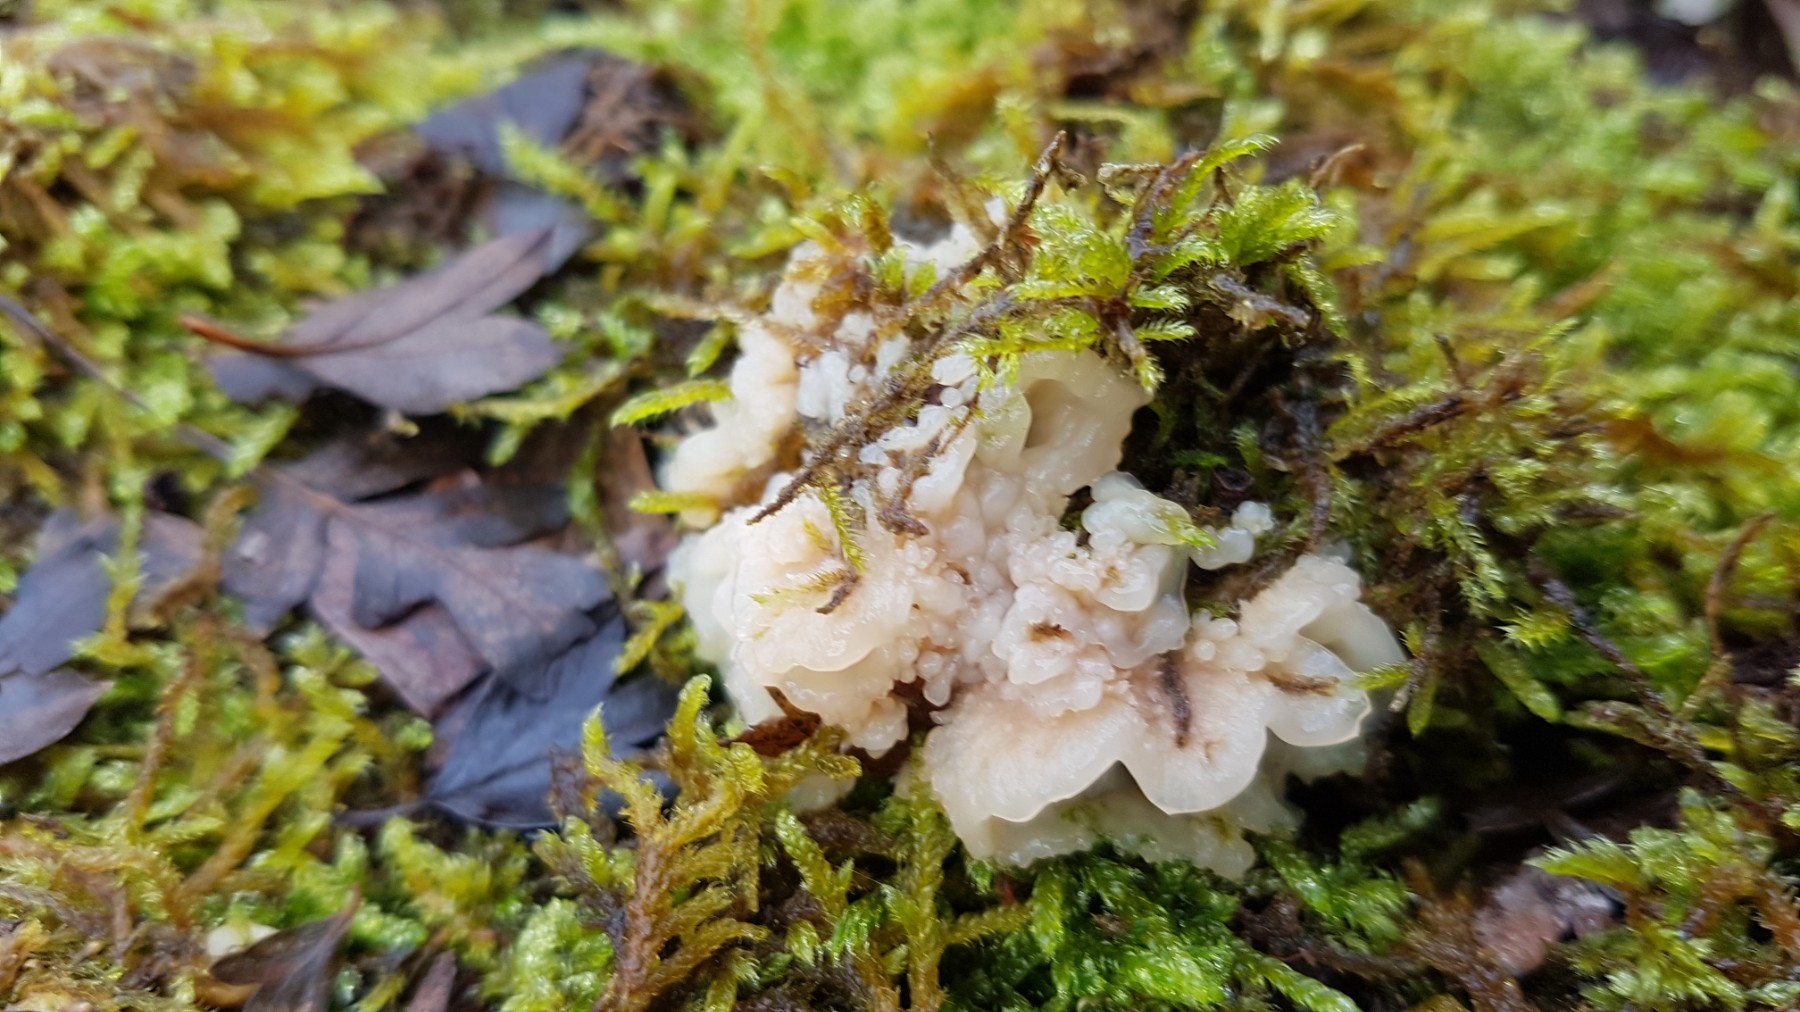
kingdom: Fungi
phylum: Basidiomycota
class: Agaricomycetes
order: Polyporales
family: Meruliaceae
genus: Phlebia
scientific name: Phlebia tremellosa
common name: bævrende åresvamp
